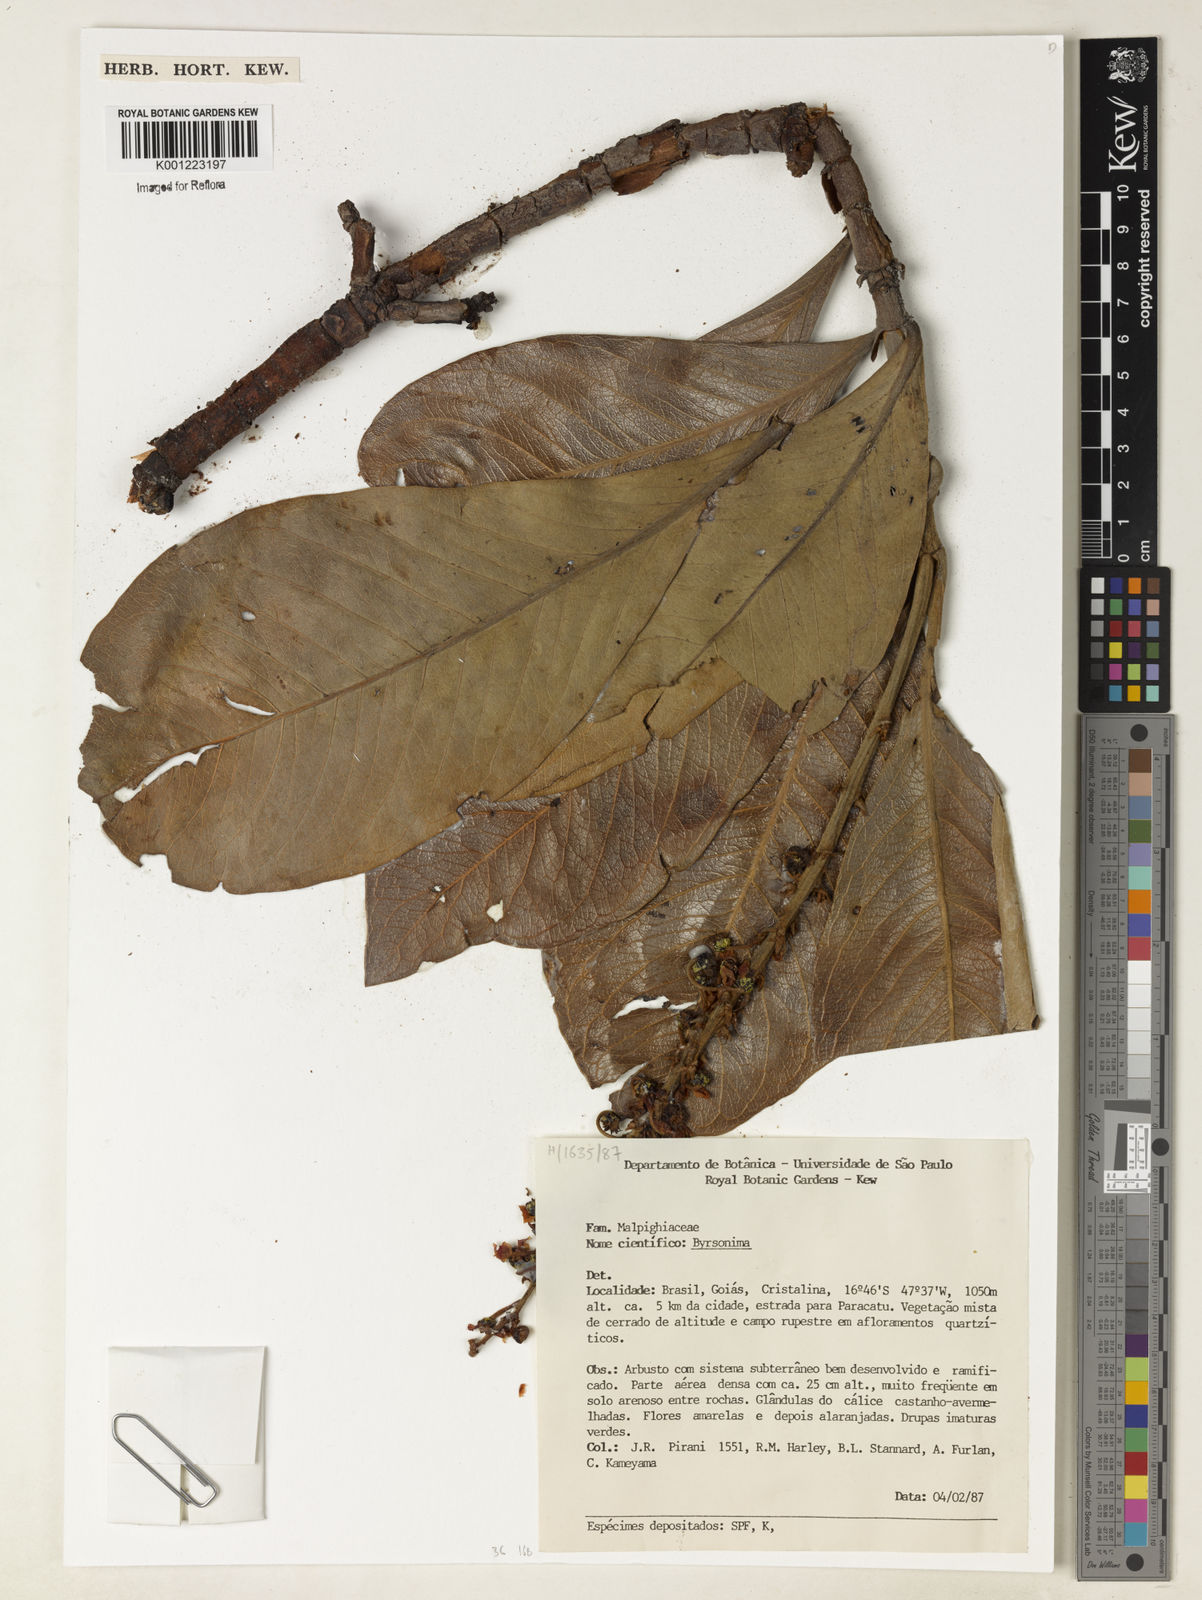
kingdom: Plantae
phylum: Tracheophyta
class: Magnoliopsida
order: Malpighiales
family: Malpighiaceae
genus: Byrsonima
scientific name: Byrsonima
